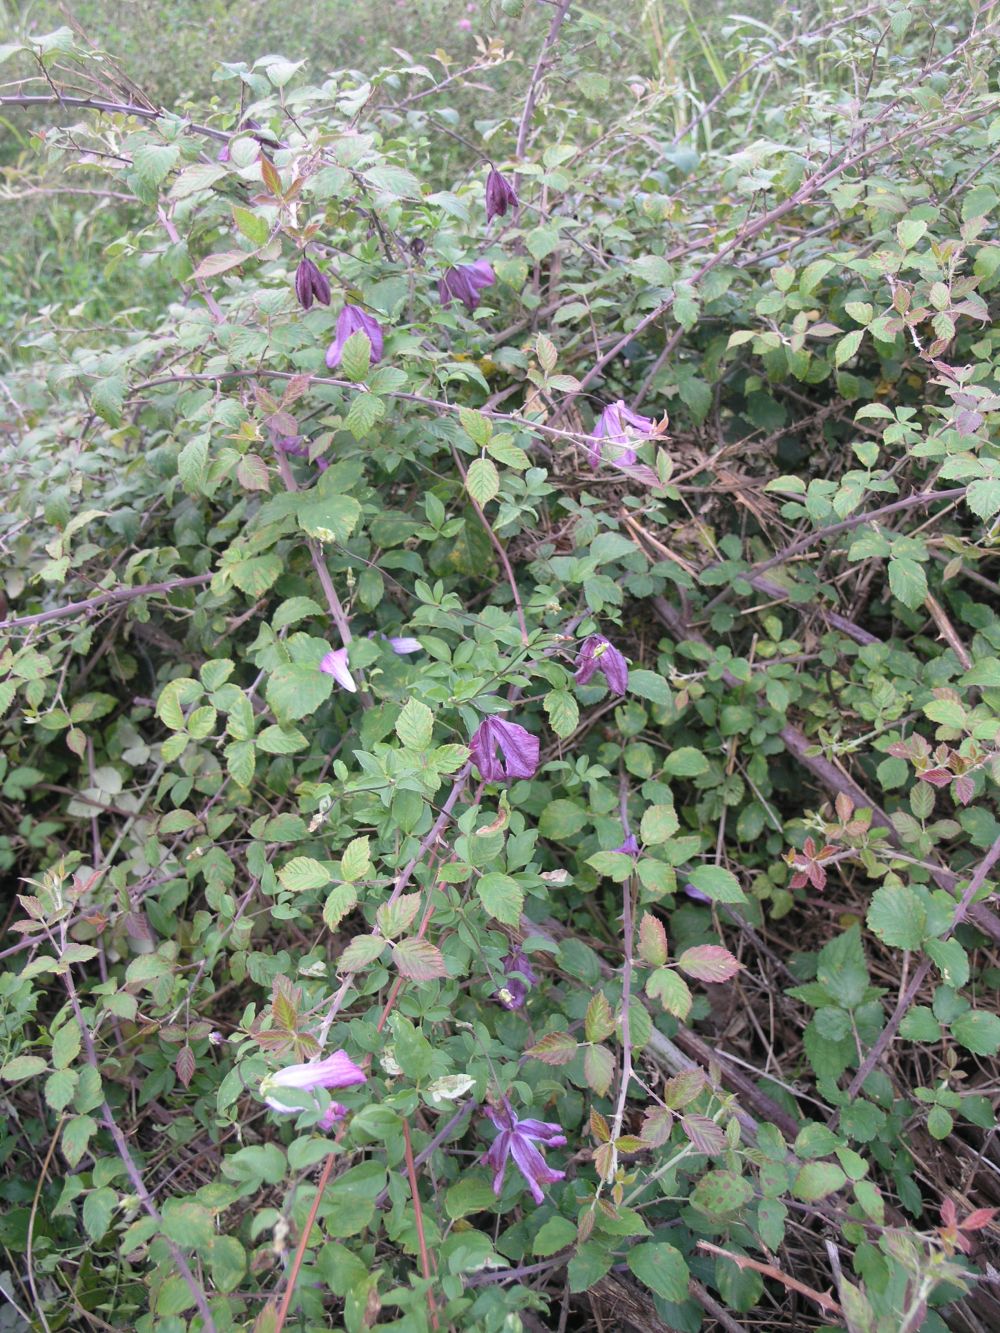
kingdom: Plantae
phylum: Tracheophyta
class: Magnoliopsida
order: Ranunculales
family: Ranunculaceae
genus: Clematis
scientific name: Clematis viticella
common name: Purple clematis
